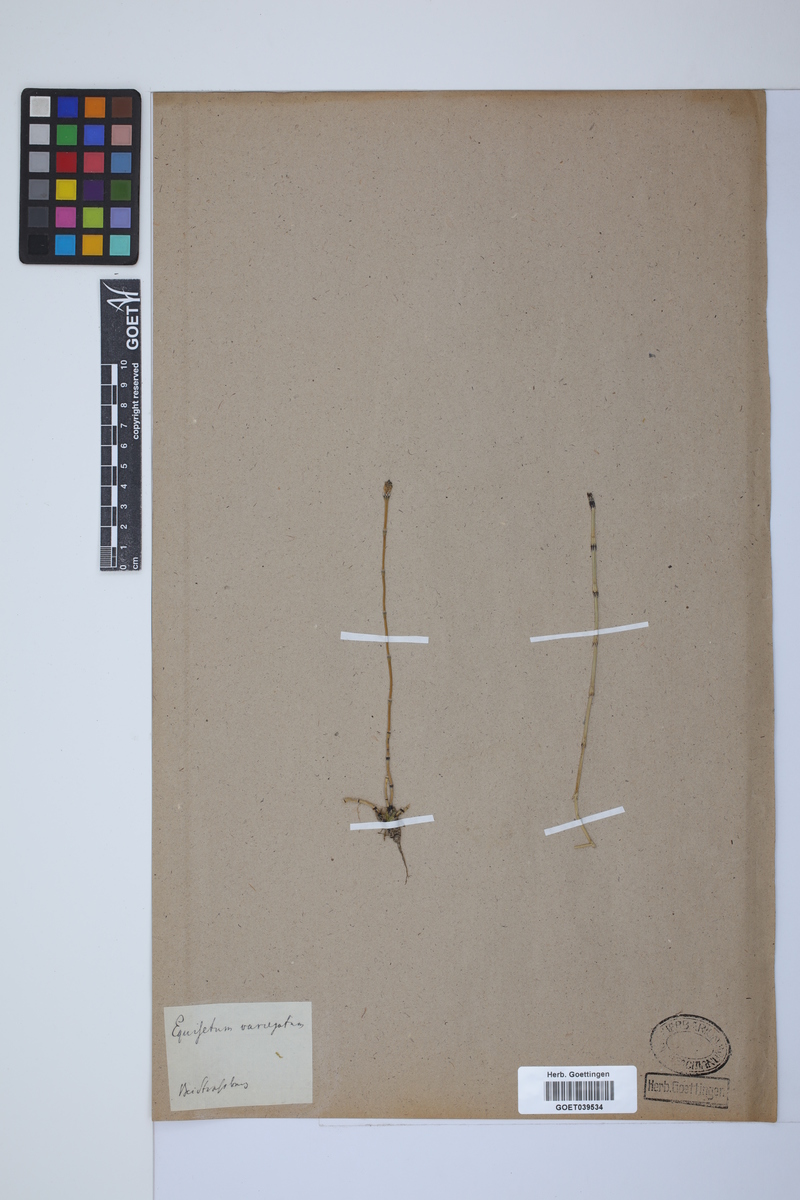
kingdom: Plantae
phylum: Tracheophyta
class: Polypodiopsida
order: Equisetales
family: Equisetaceae
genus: Equisetum
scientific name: Equisetum variegatum
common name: Variegated horsetail
